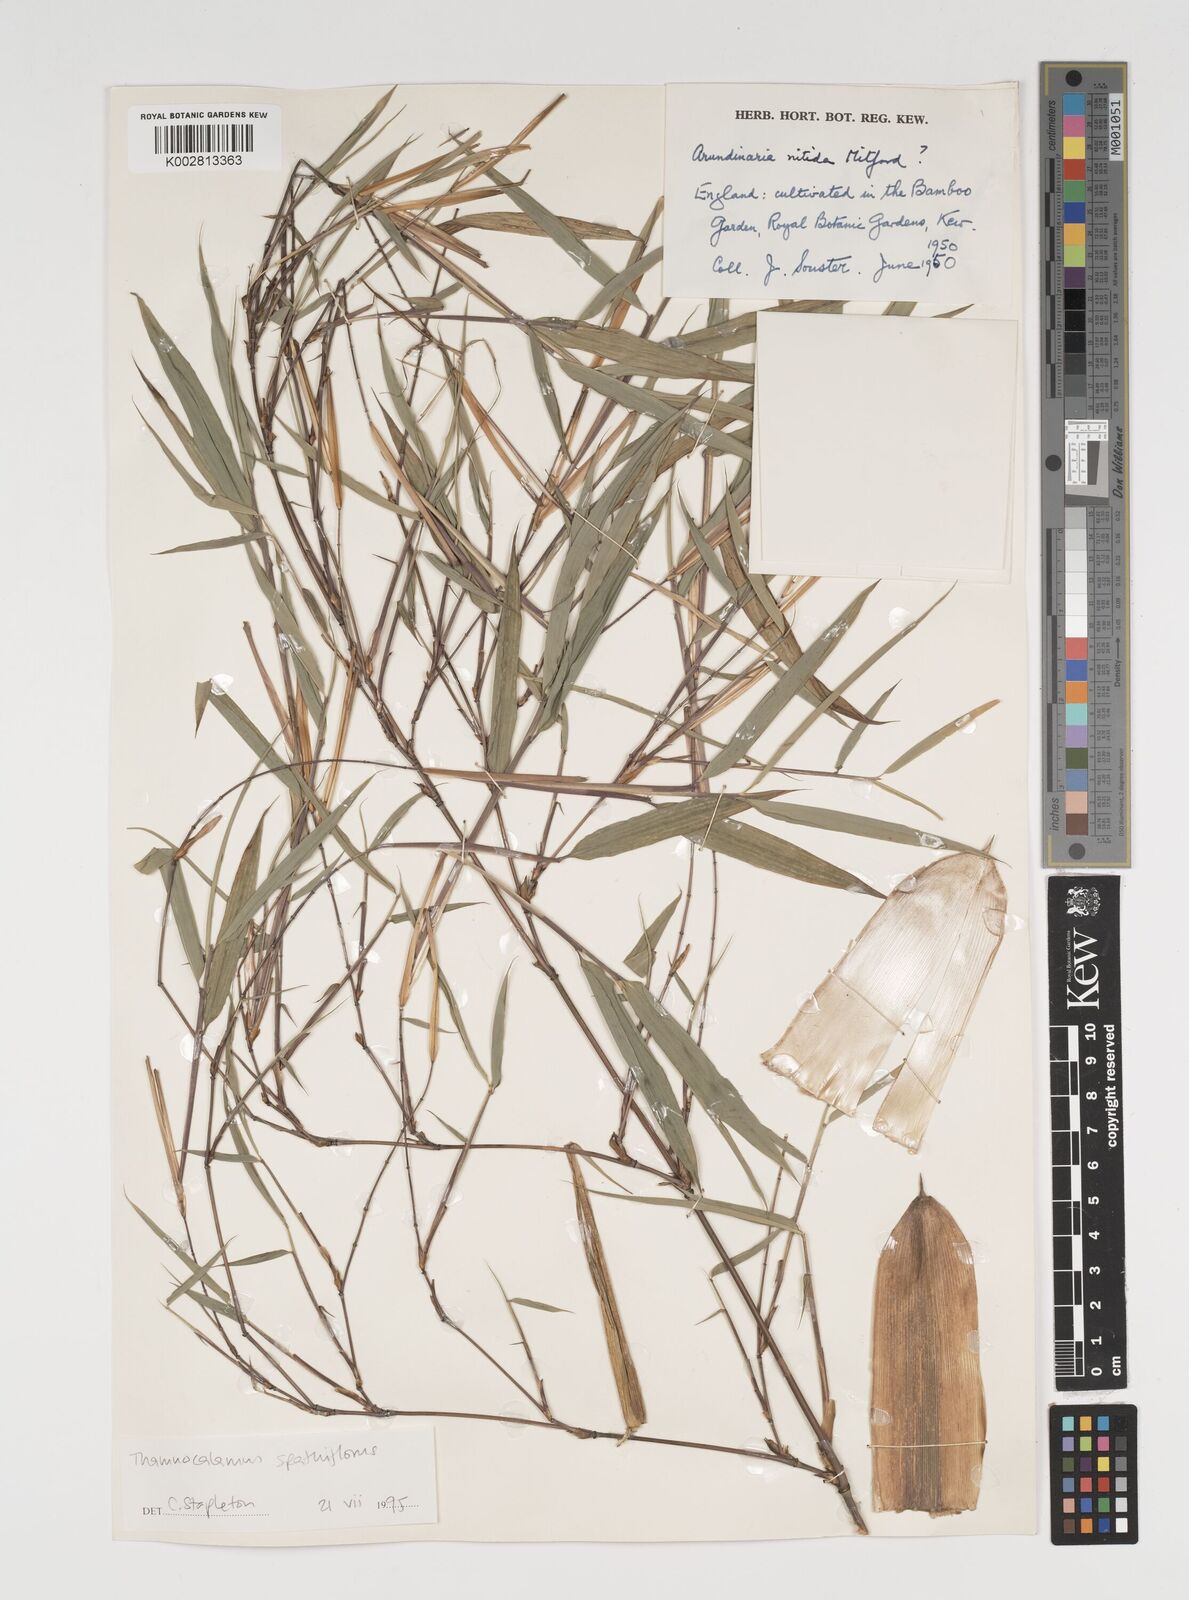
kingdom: Plantae
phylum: Tracheophyta
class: Liliopsida
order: Poales
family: Poaceae
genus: Thamnocalamus
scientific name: Thamnocalamus spathiflorus
